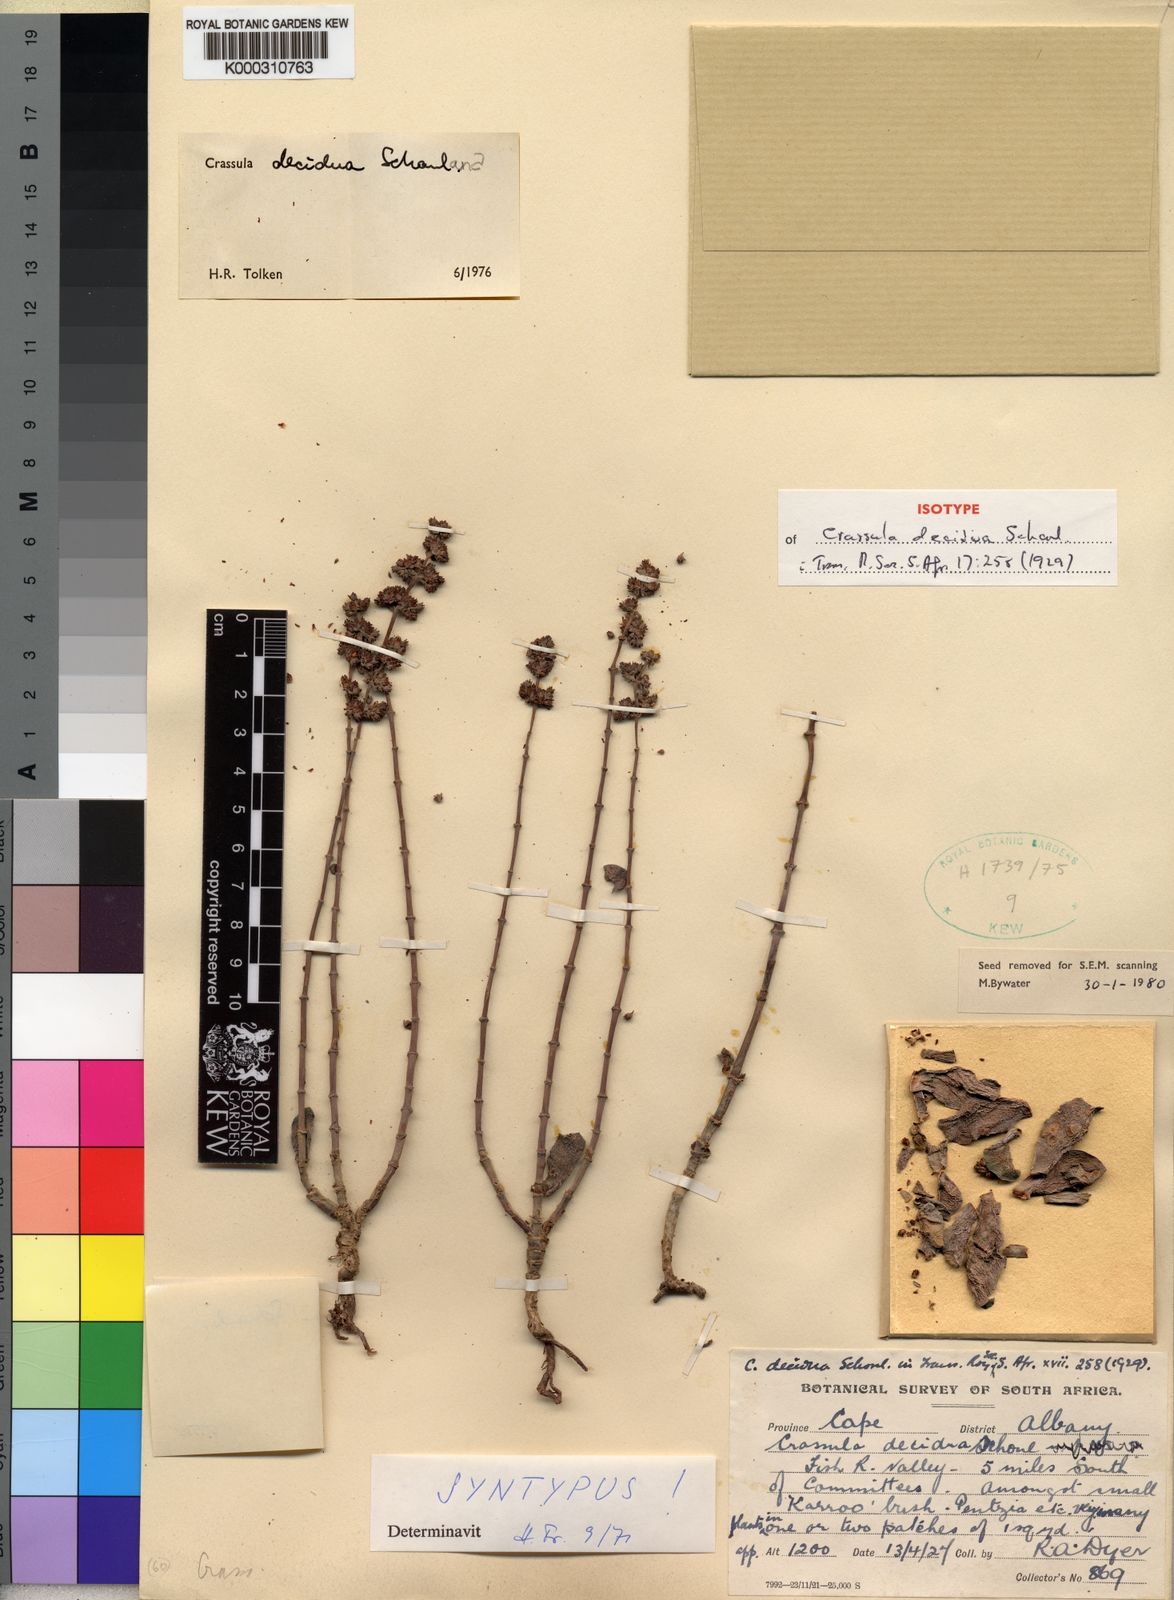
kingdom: Plantae
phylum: Tracheophyta
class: Magnoliopsida
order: Saxifragales
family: Crassulaceae
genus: Crassula
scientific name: Crassula
